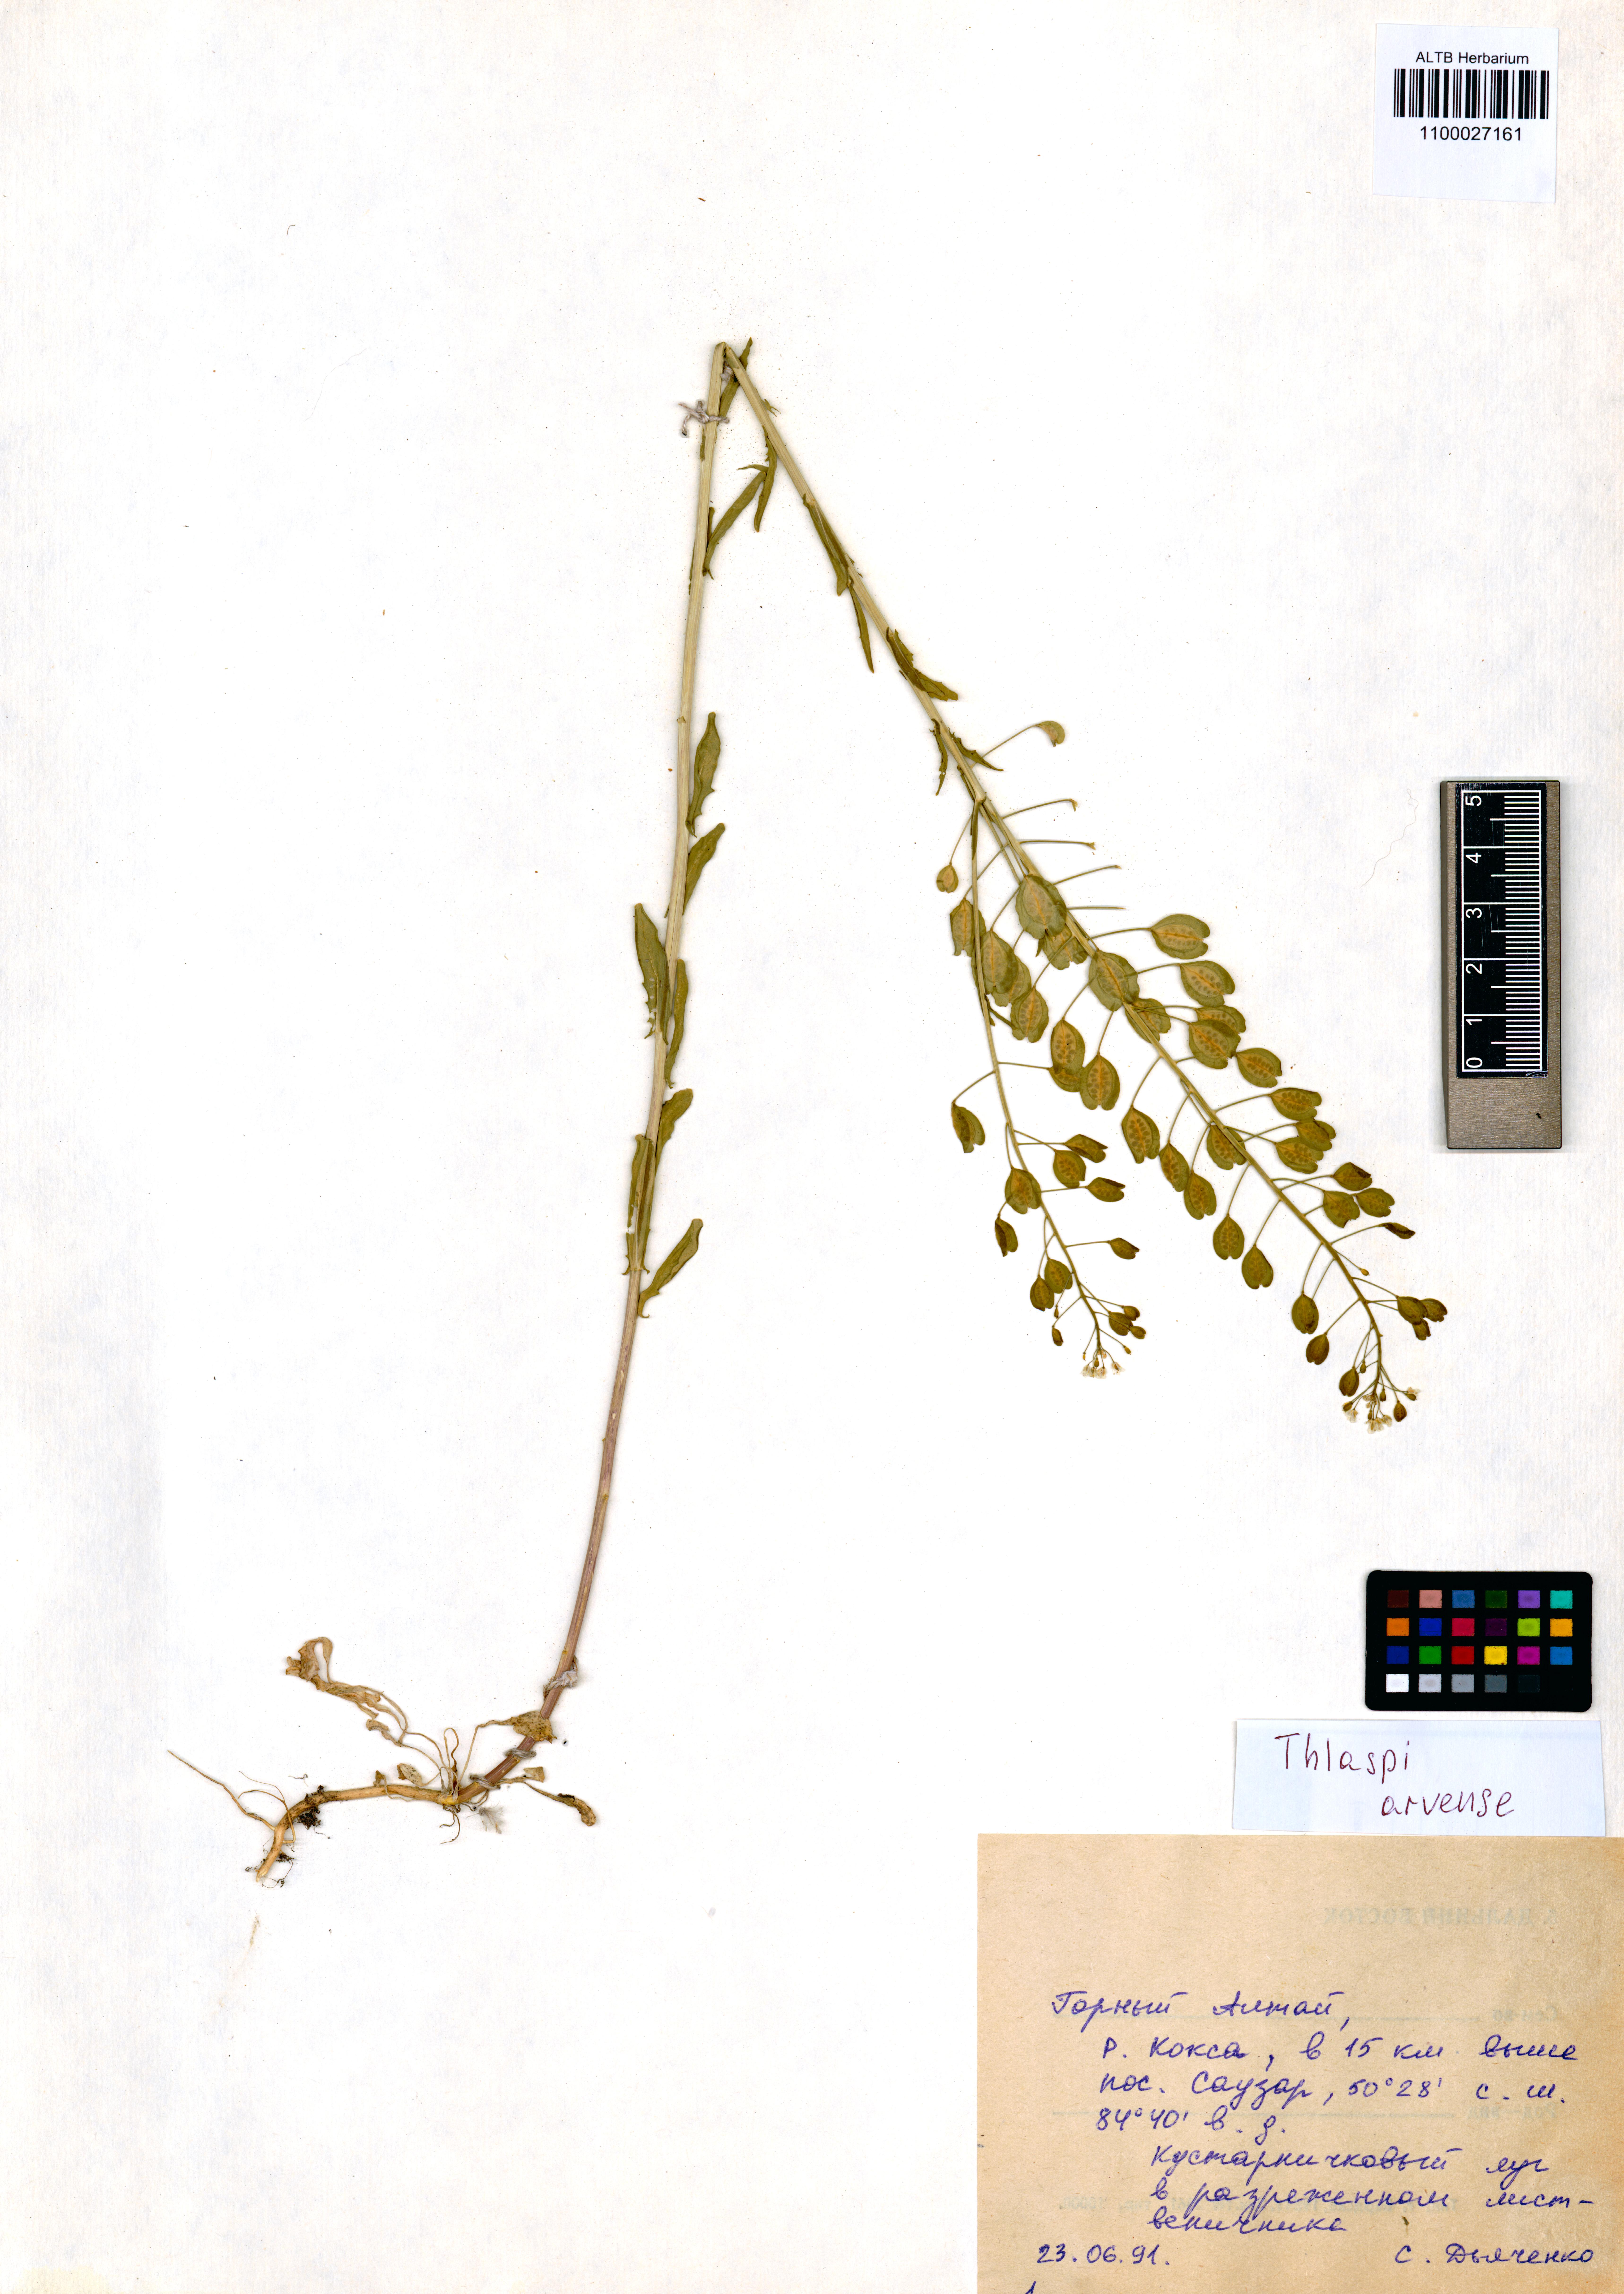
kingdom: Plantae
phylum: Tracheophyta
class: Magnoliopsida
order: Brassicales
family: Brassicaceae
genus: Thlaspi
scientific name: Thlaspi arvense
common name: Field pennycress
